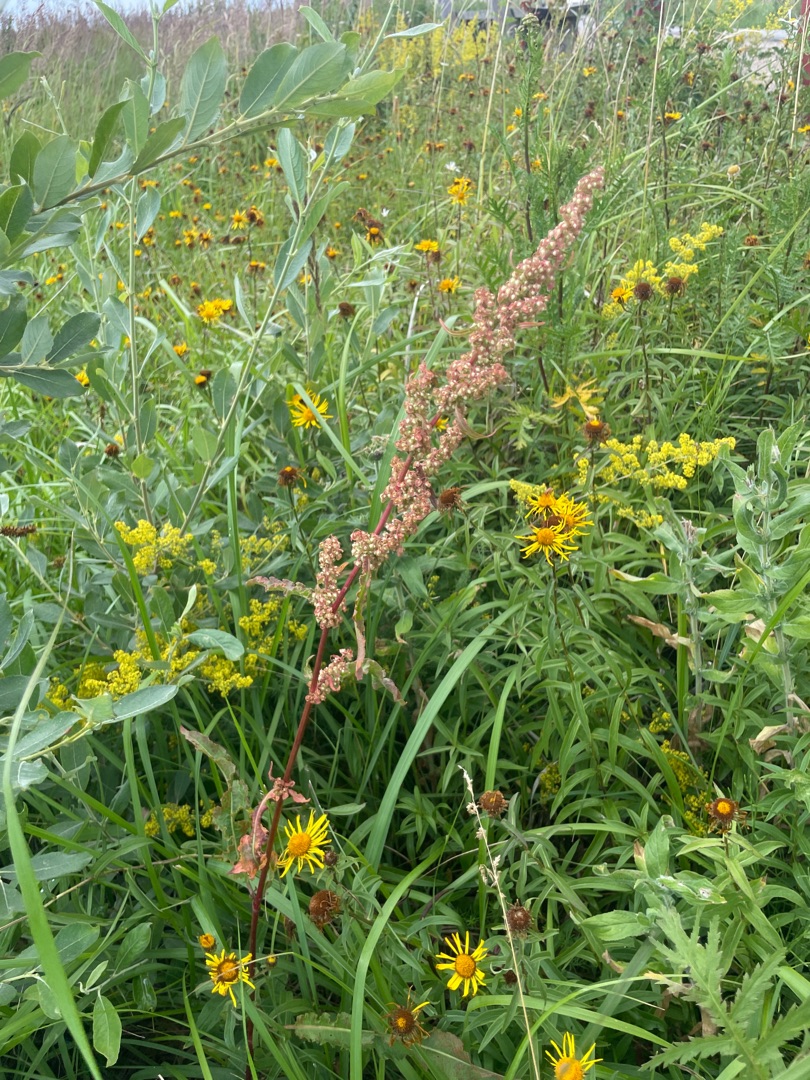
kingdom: Plantae
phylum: Tracheophyta
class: Magnoliopsida
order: Caryophyllales
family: Polygonaceae
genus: Rumex
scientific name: Rumex crispus
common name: Kruset skræppe
